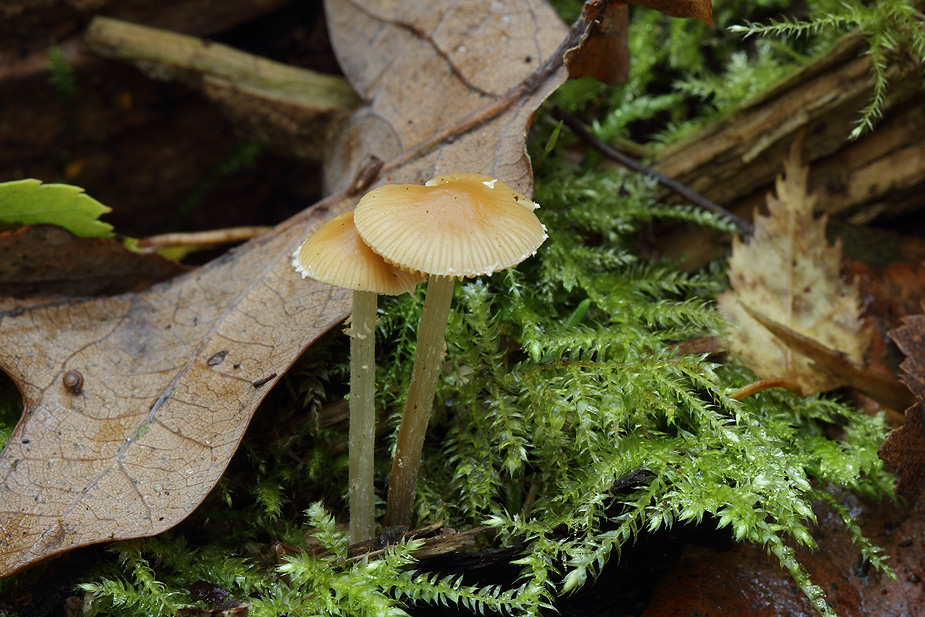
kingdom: Fungi
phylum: Basidiomycota
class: Agaricomycetes
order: Agaricales
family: Bolbitiaceae
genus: Conocybe
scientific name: Conocybe velata
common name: tandet dansehat
